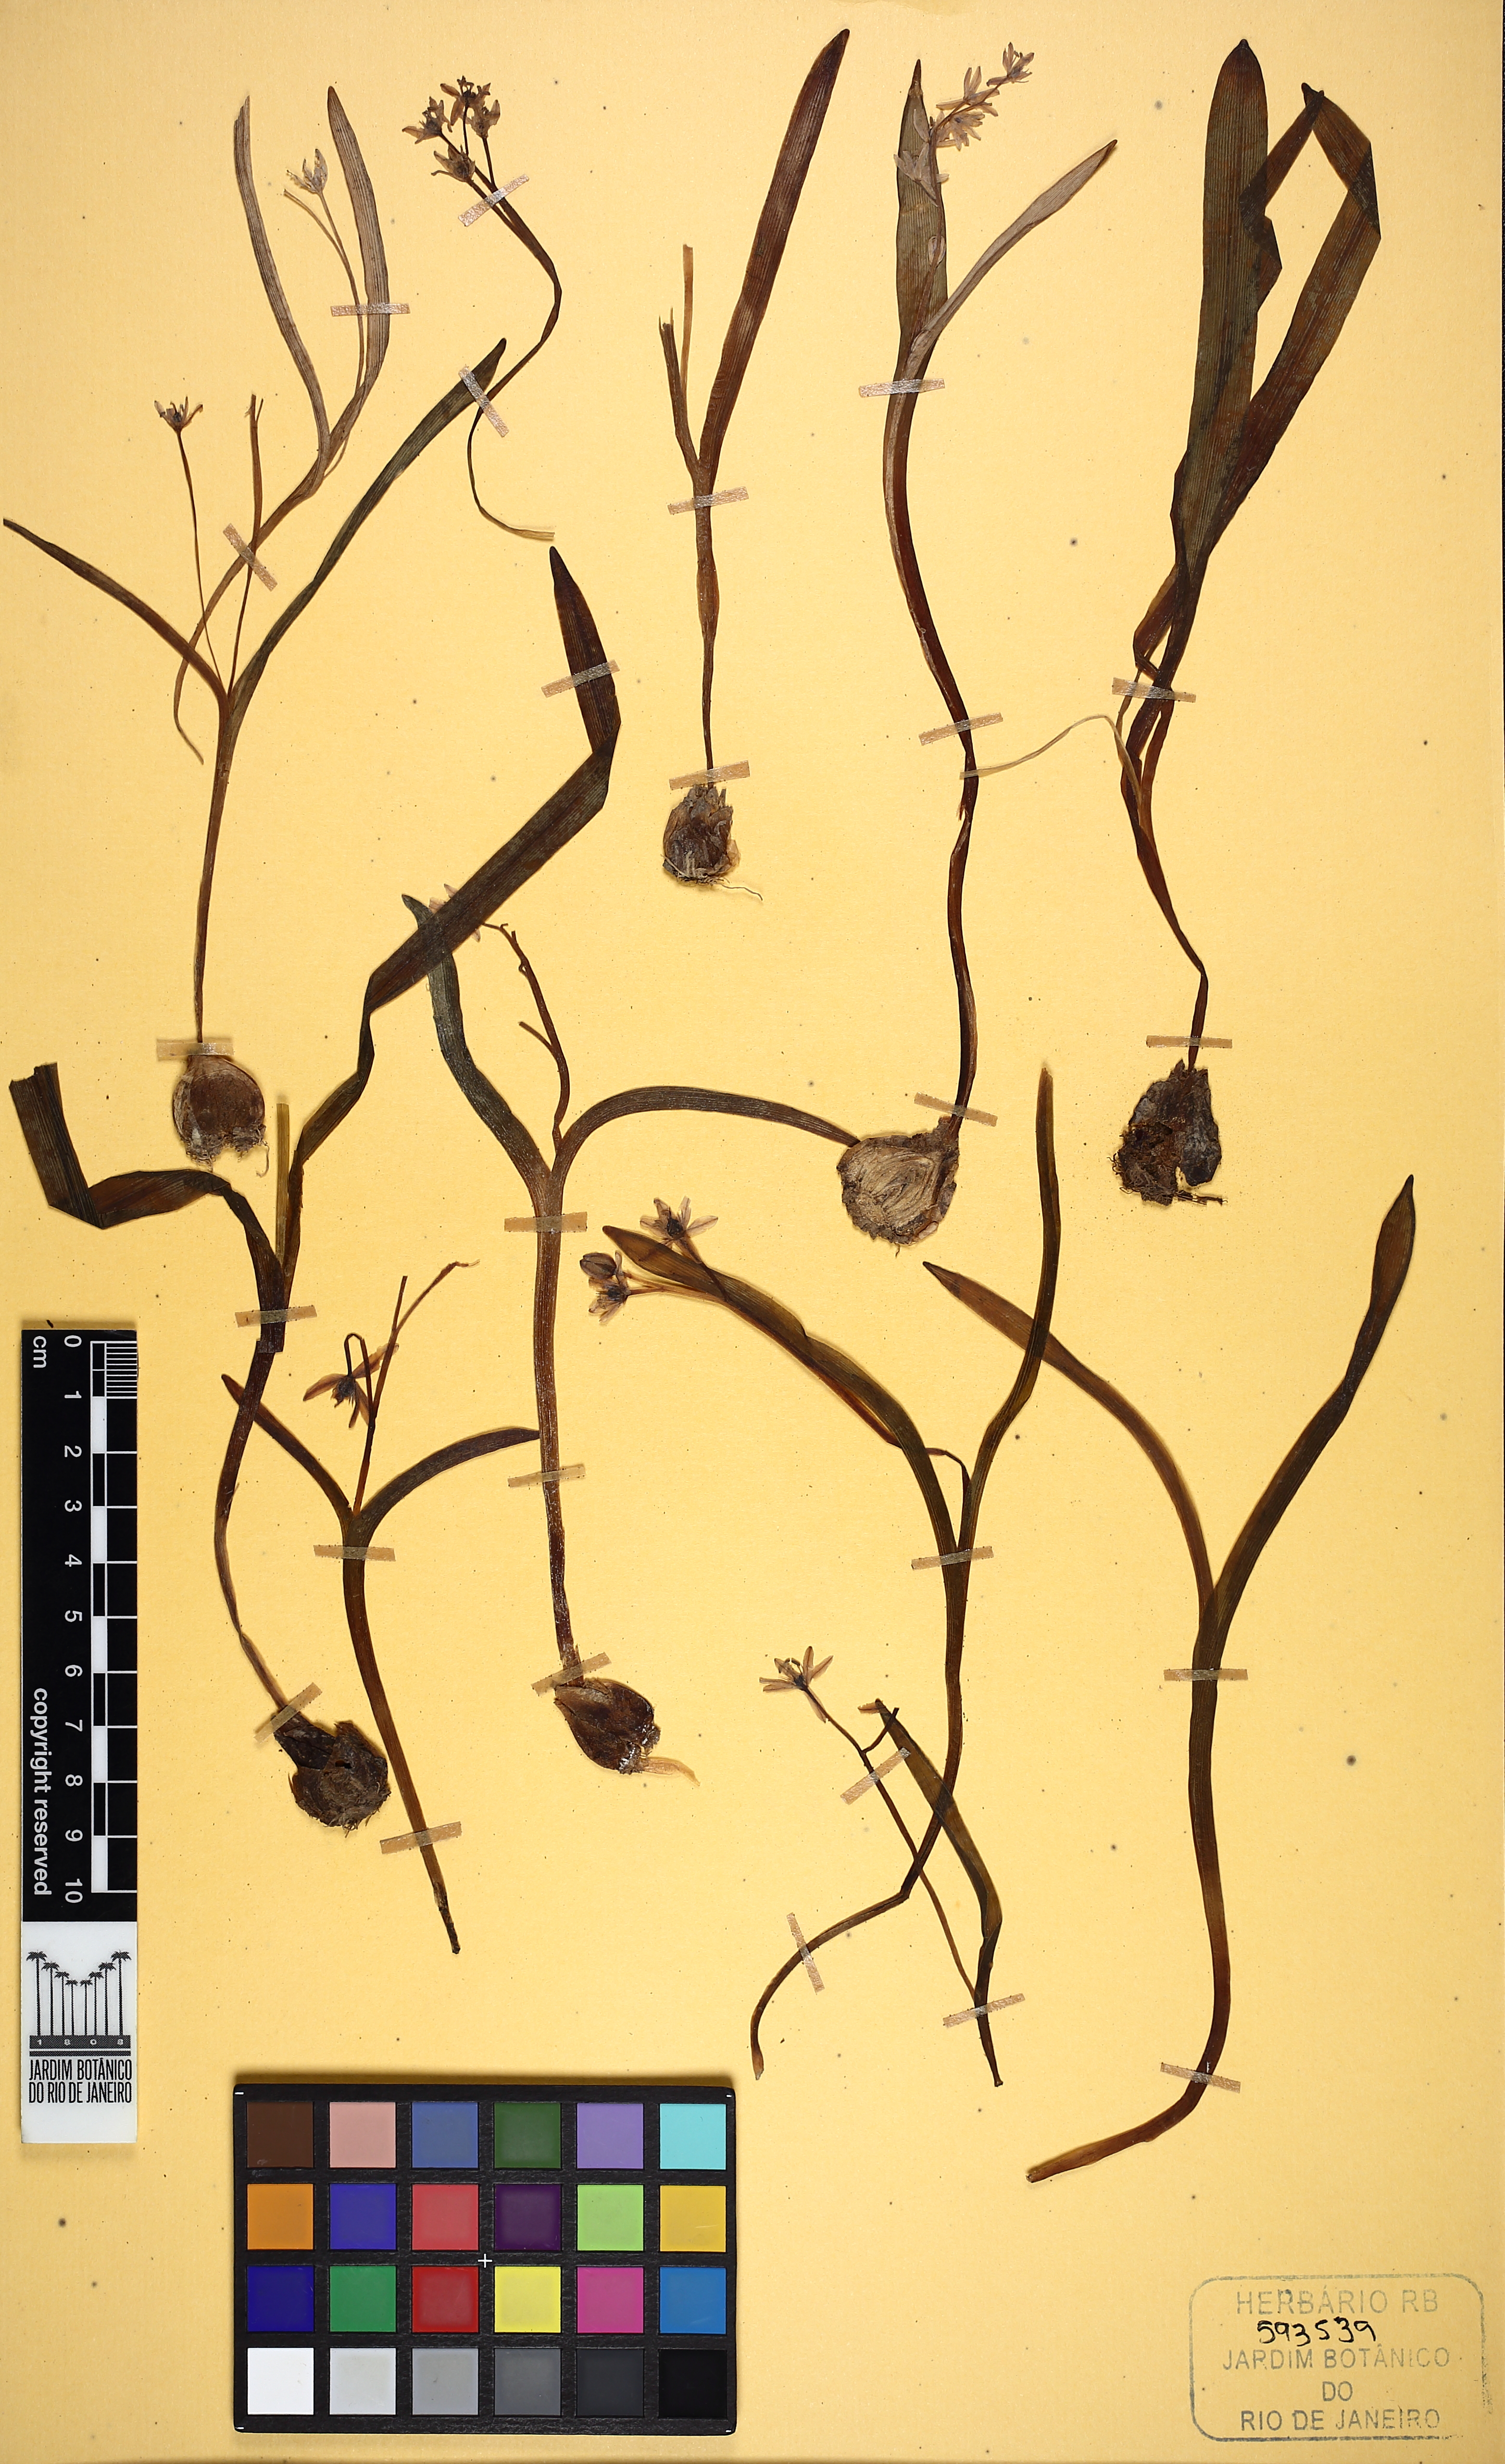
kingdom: Plantae
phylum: Tracheophyta
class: Liliopsida
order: Asparagales
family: Asparagaceae
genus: Scilla
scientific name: Scilla bifolia
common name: Alpine squill
